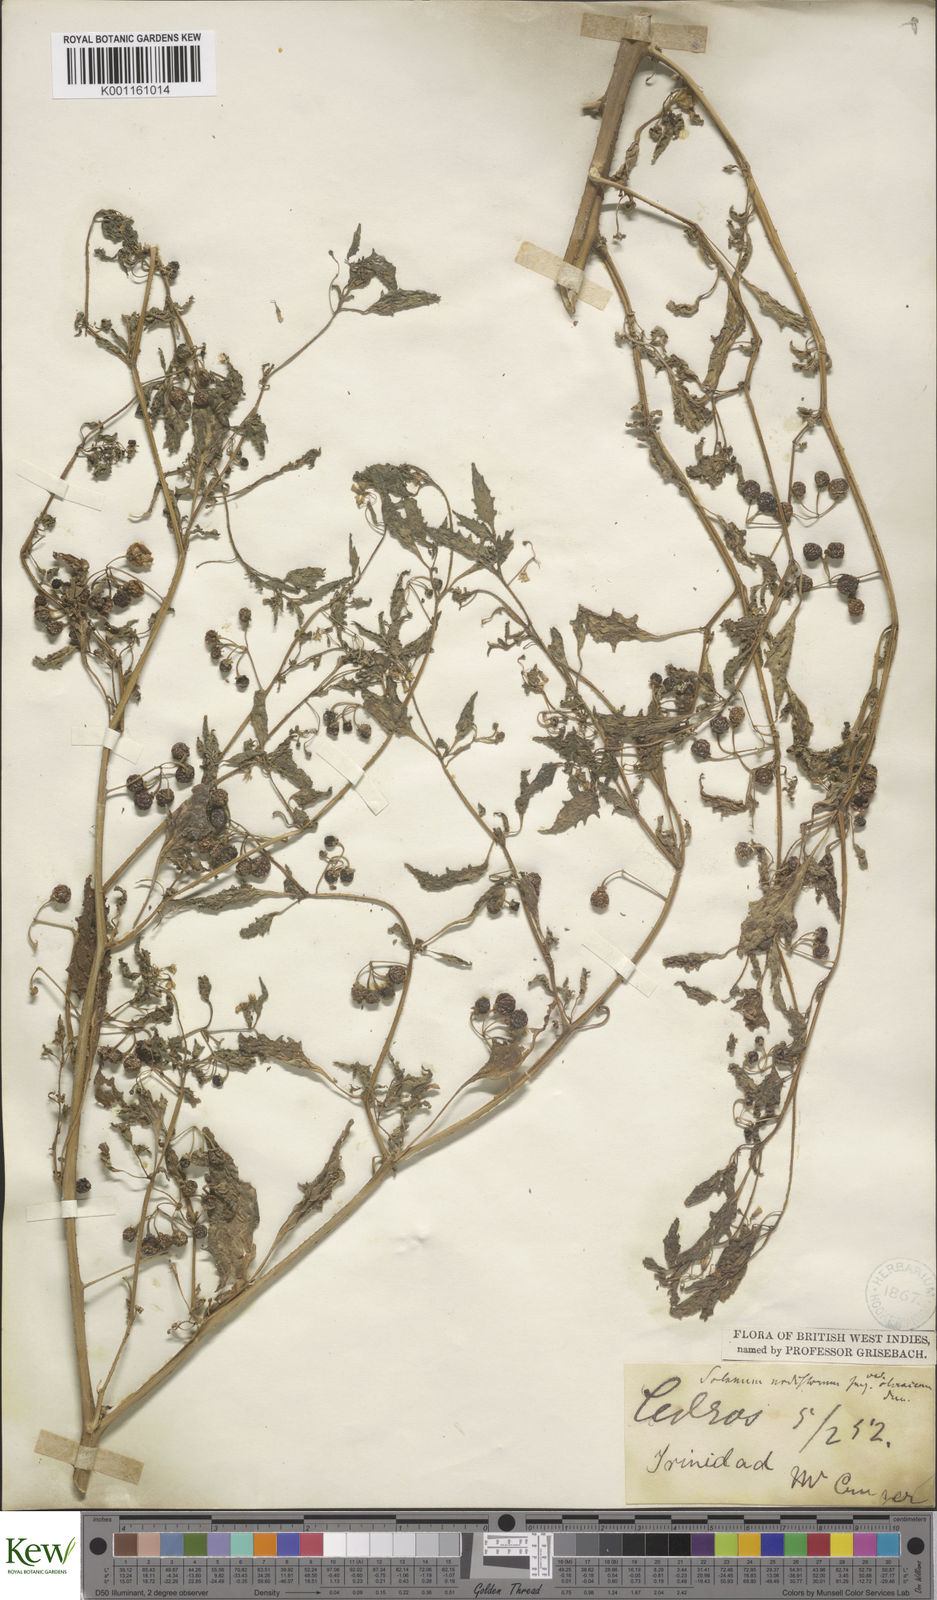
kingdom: Plantae
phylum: Tracheophyta
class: Magnoliopsida
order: Solanales
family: Solanaceae
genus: Solanum
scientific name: Solanum americanum
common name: American black nightshade
